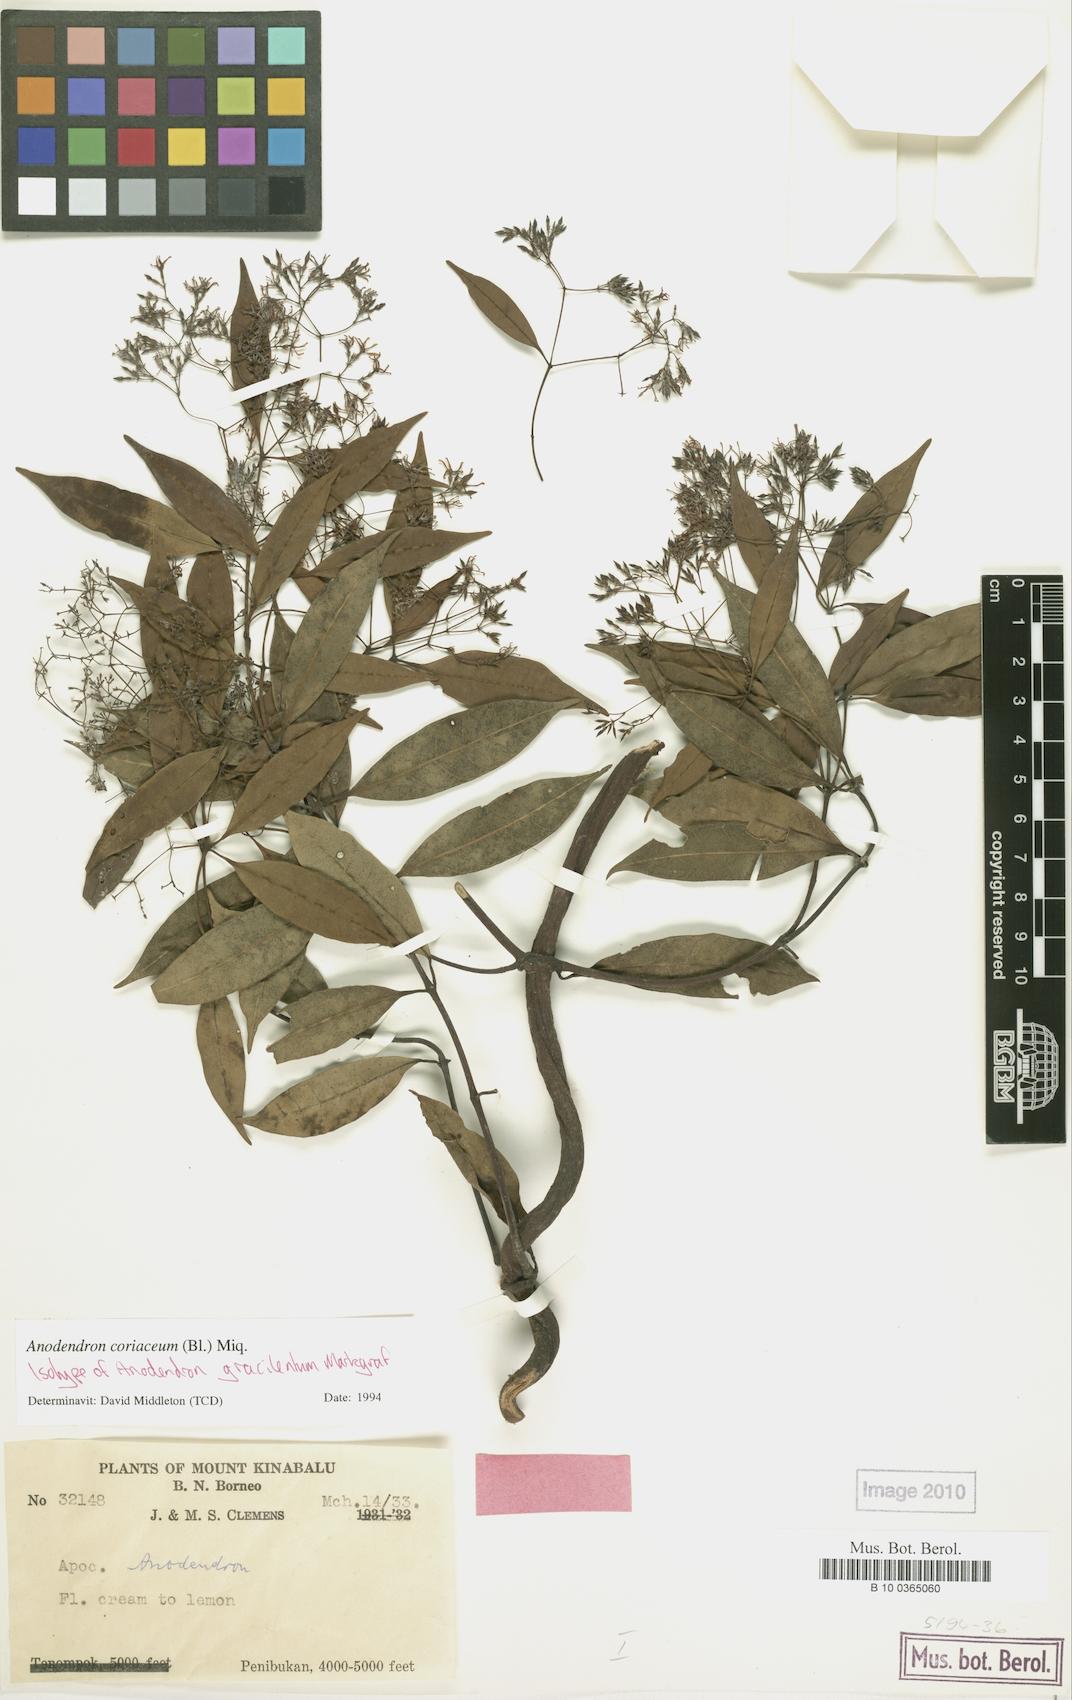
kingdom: Plantae
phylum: Tracheophyta
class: Magnoliopsida
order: Gentianales
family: Apocynaceae
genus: Anodendron
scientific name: Anodendron coriaceum
